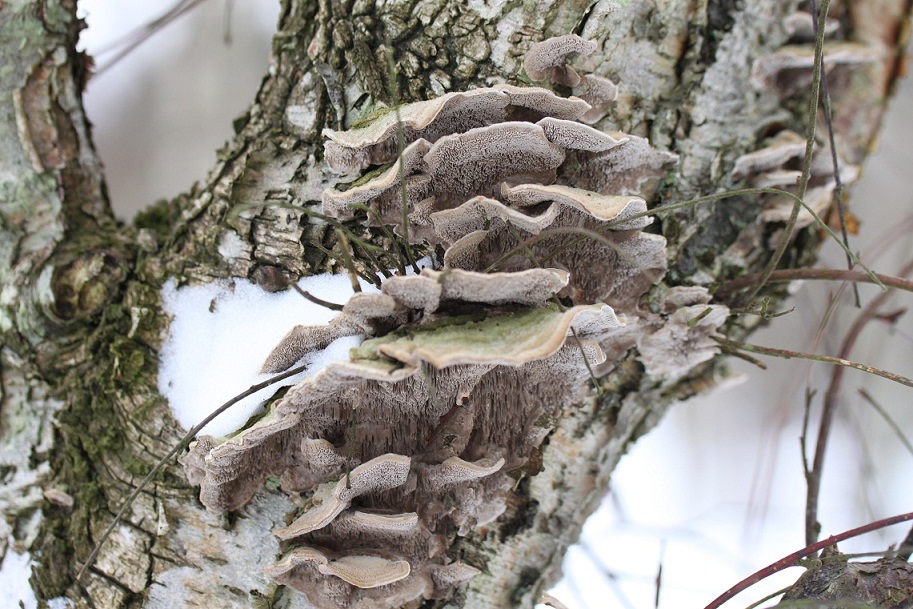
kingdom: Fungi
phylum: Basidiomycota
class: Agaricomycetes
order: Polyporales
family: Cerrenaceae
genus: Cerrena
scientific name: Cerrena unicolor
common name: ensfarvet læderporesvamp
